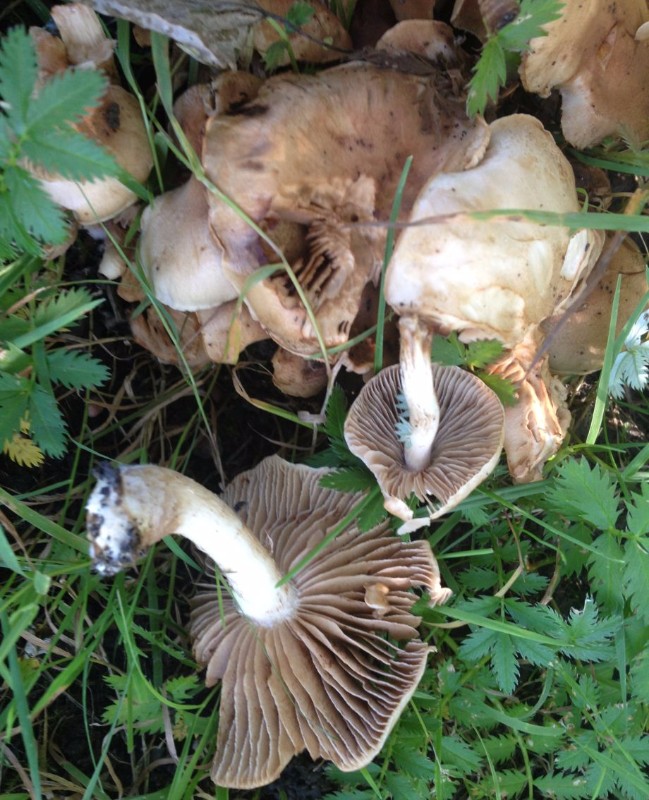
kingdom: Fungi
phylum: Basidiomycota
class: Agaricomycetes
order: Agaricales
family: Hymenogastraceae
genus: Hebeloma
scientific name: Hebeloma
